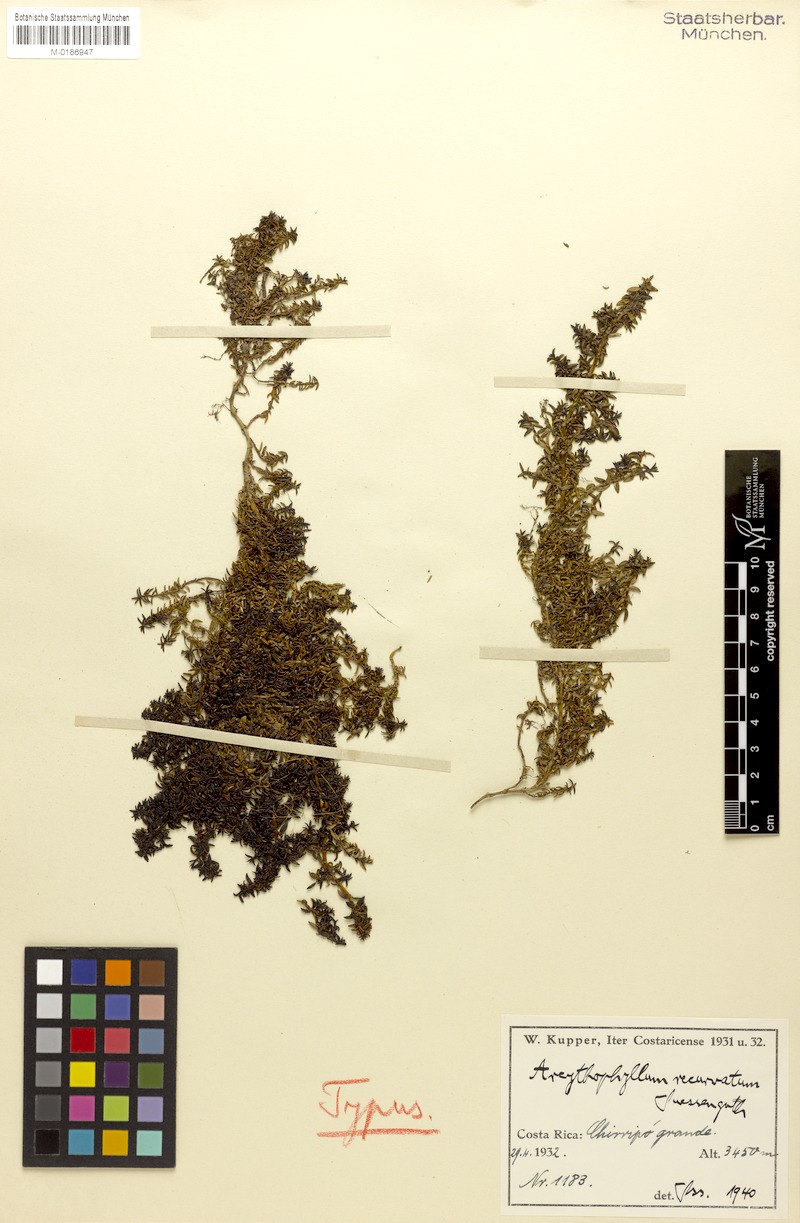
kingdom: Plantae
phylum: Tracheophyta
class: Magnoliopsida
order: Gentianales
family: Rubiaceae
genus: Arcytophyllum
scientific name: Arcytophyllum muticum
